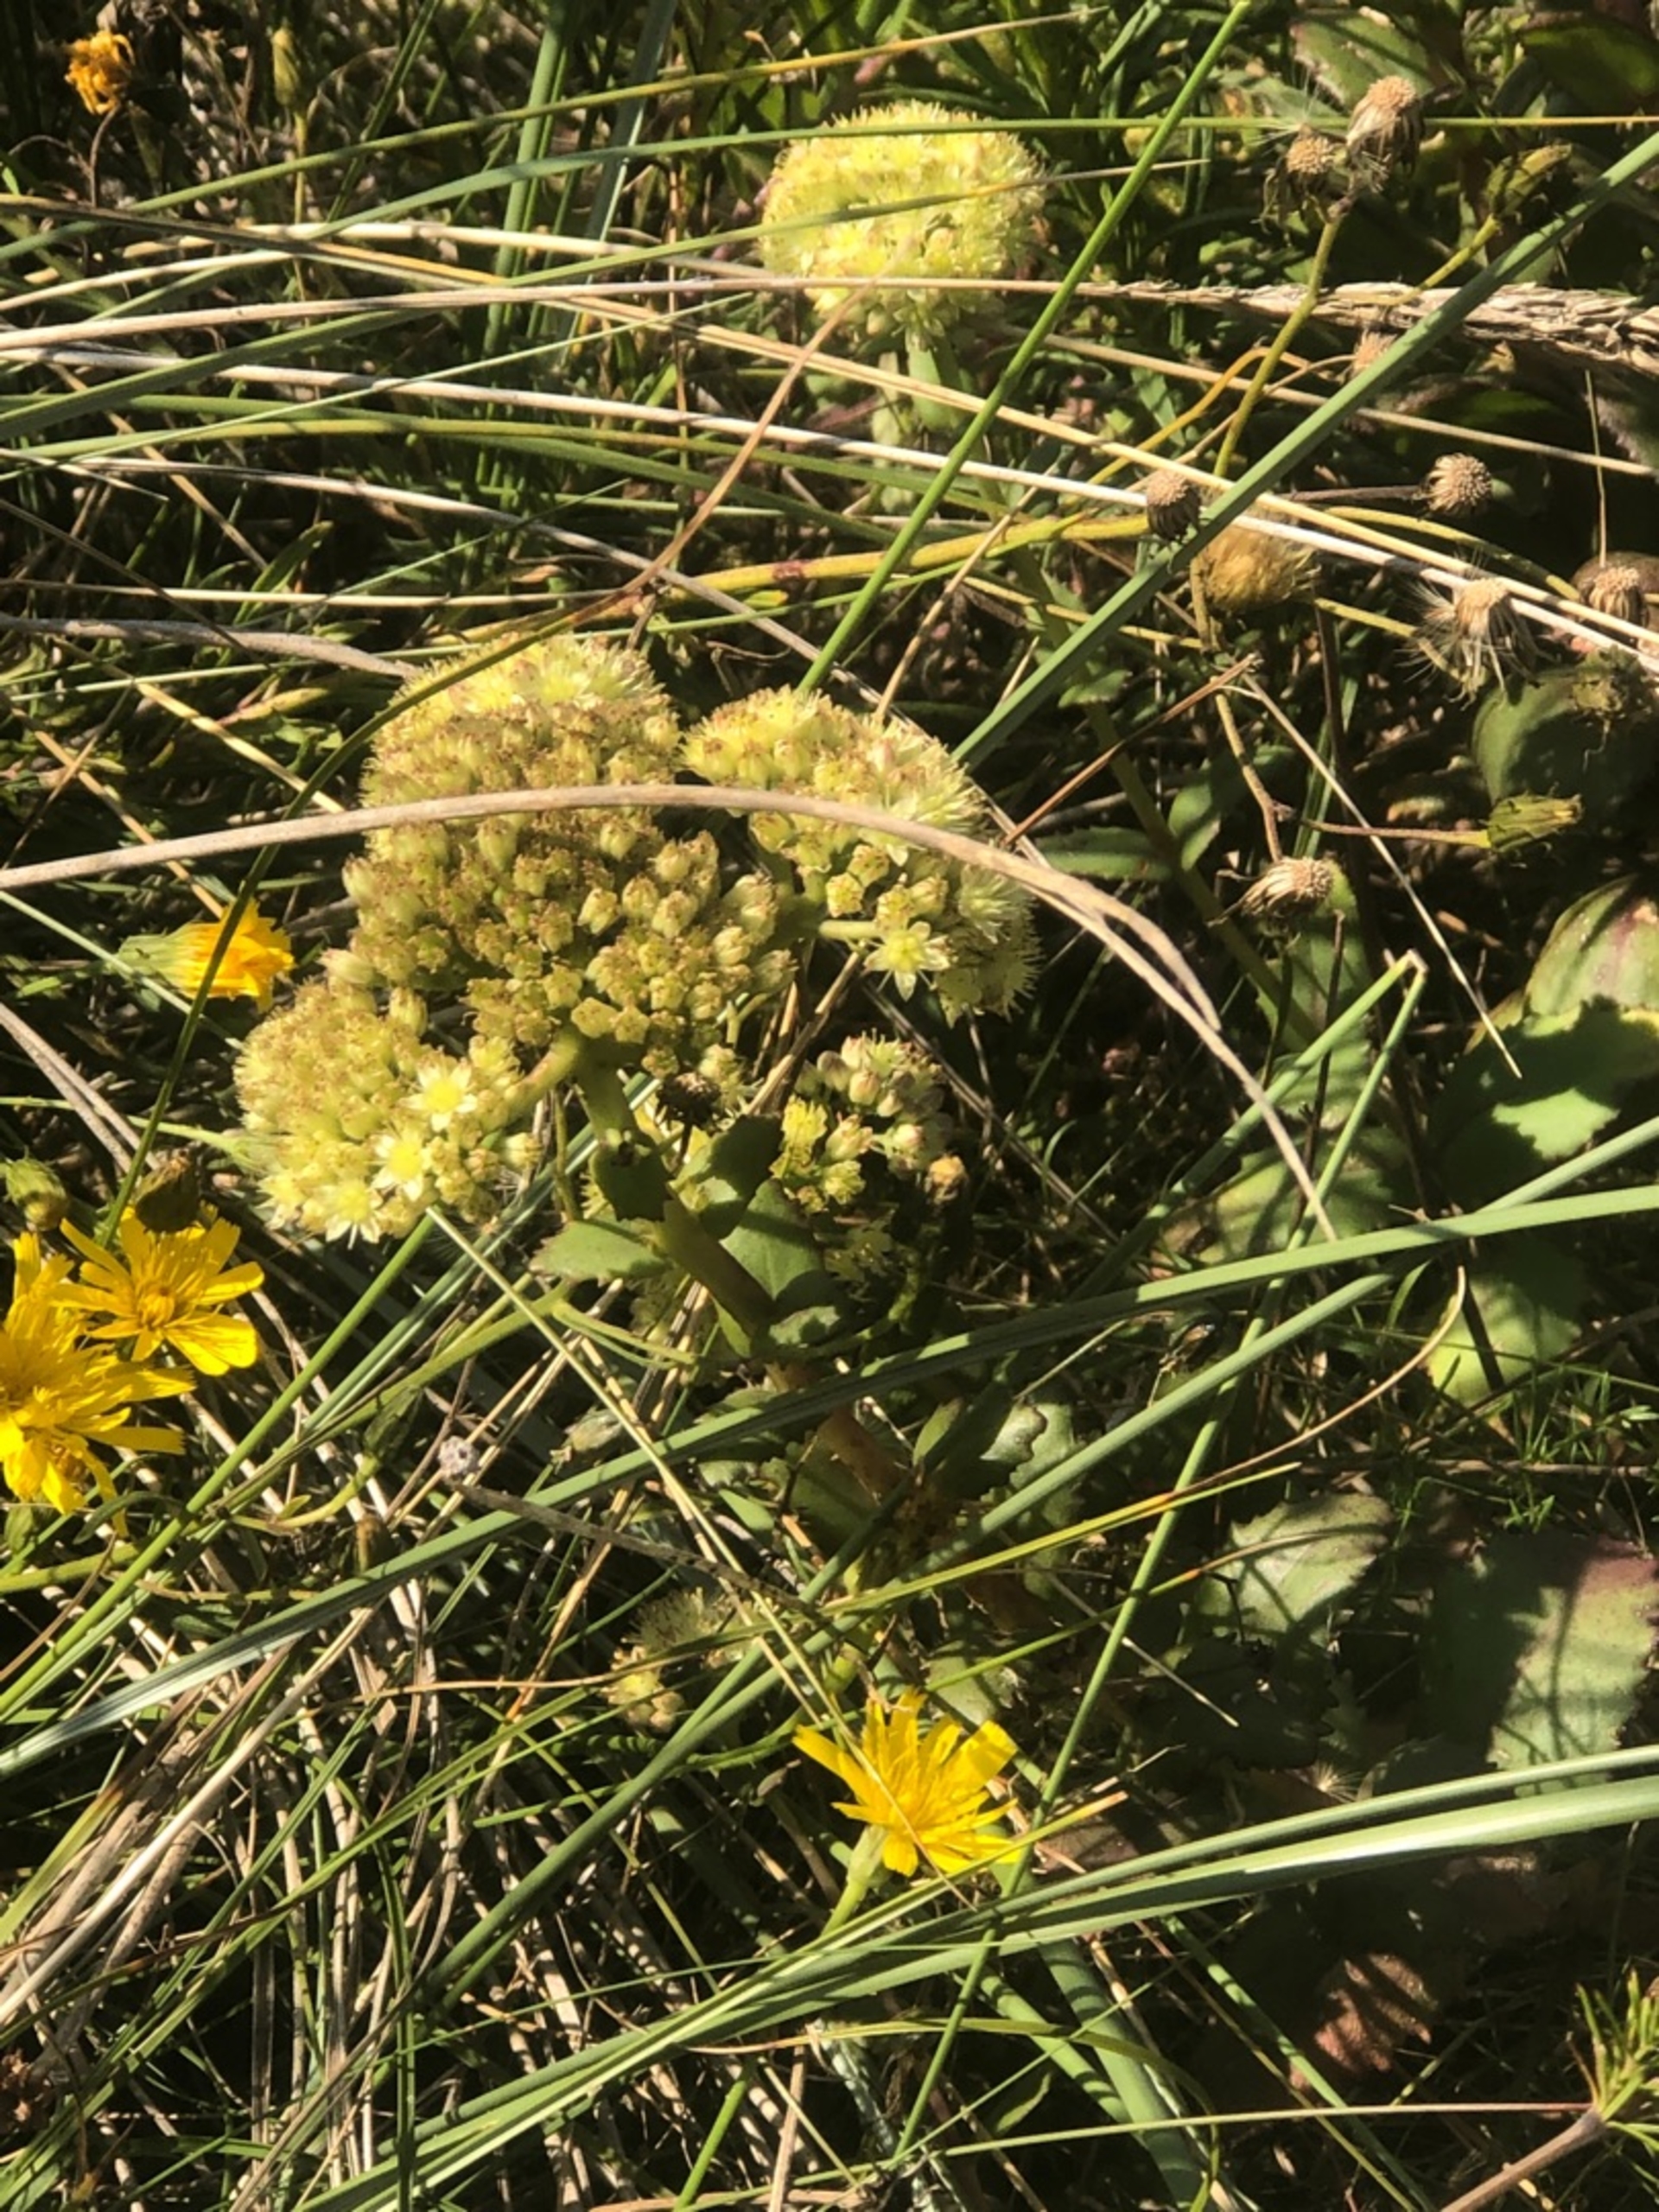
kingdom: Plantae
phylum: Tracheophyta
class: Magnoliopsida
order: Saxifragales
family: Crassulaceae
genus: Hylotelephium
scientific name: Hylotelephium maximum
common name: Almindelig sankthansurt
